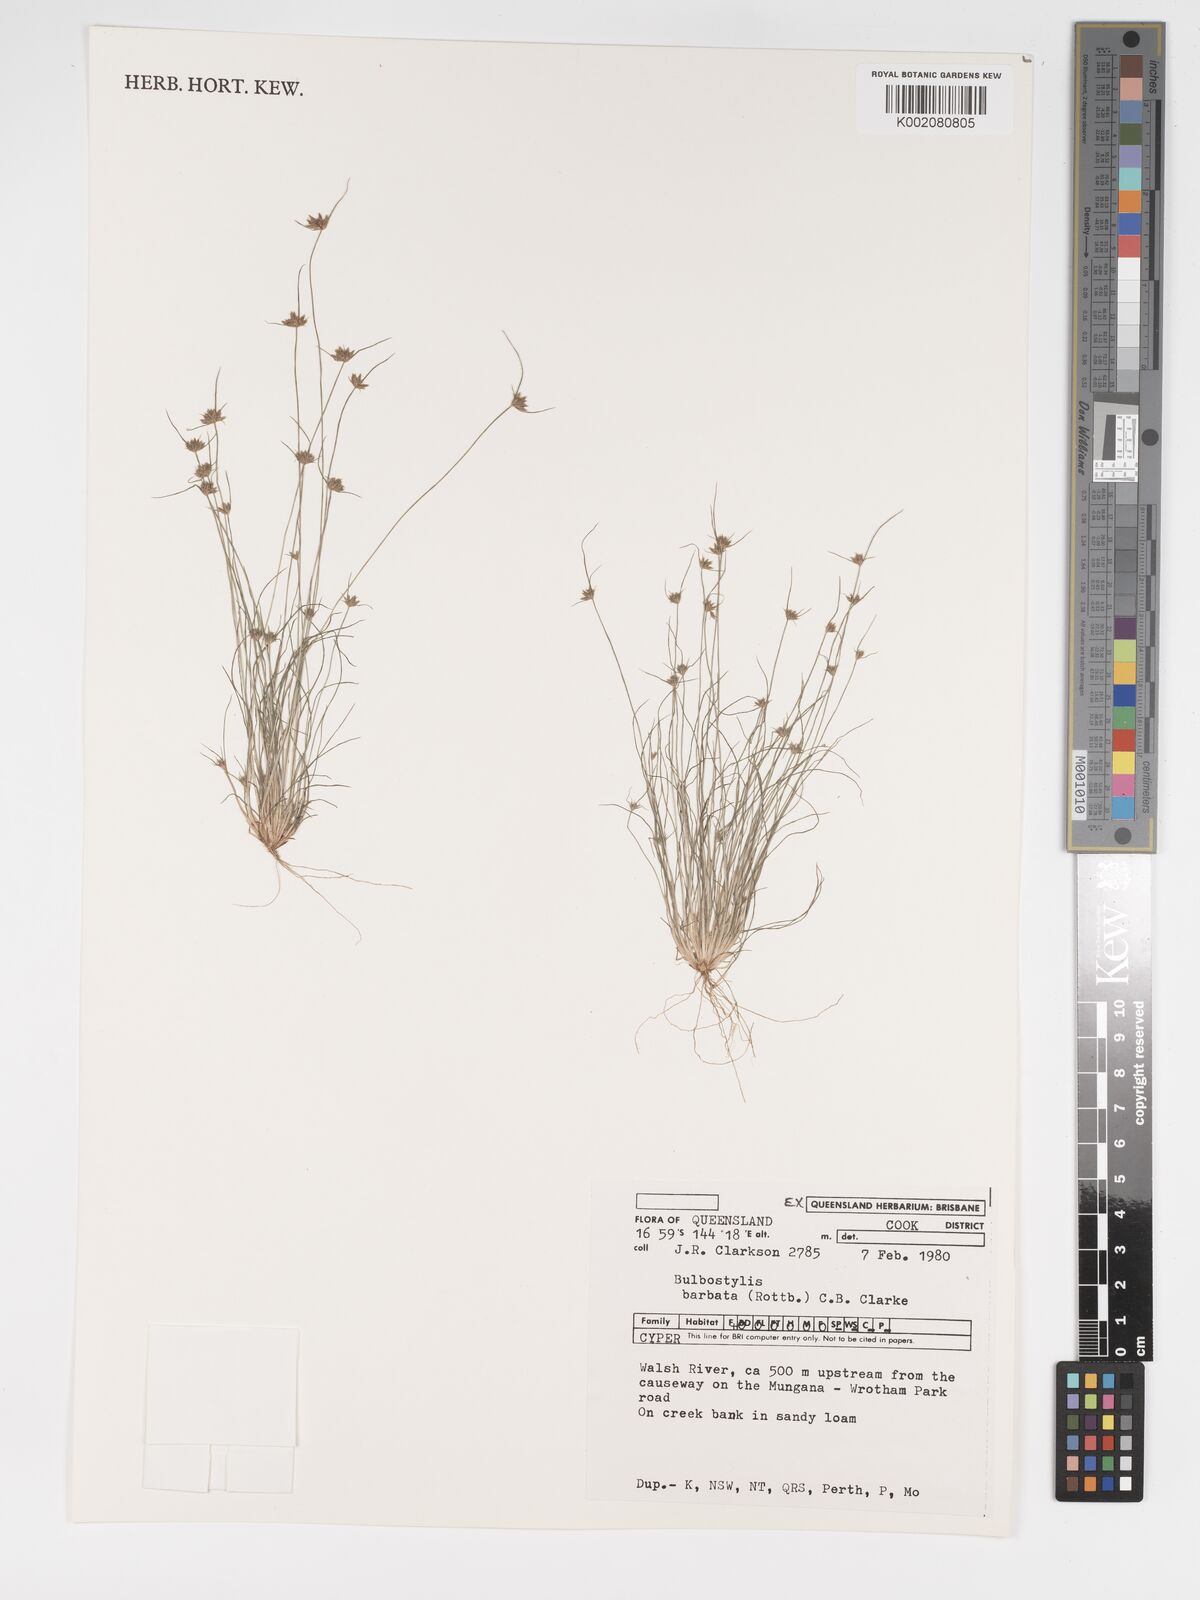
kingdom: Plantae
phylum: Tracheophyta
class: Liliopsida
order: Poales
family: Cyperaceae
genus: Bulbostylis
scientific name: Bulbostylis barbata
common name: Watergrass
